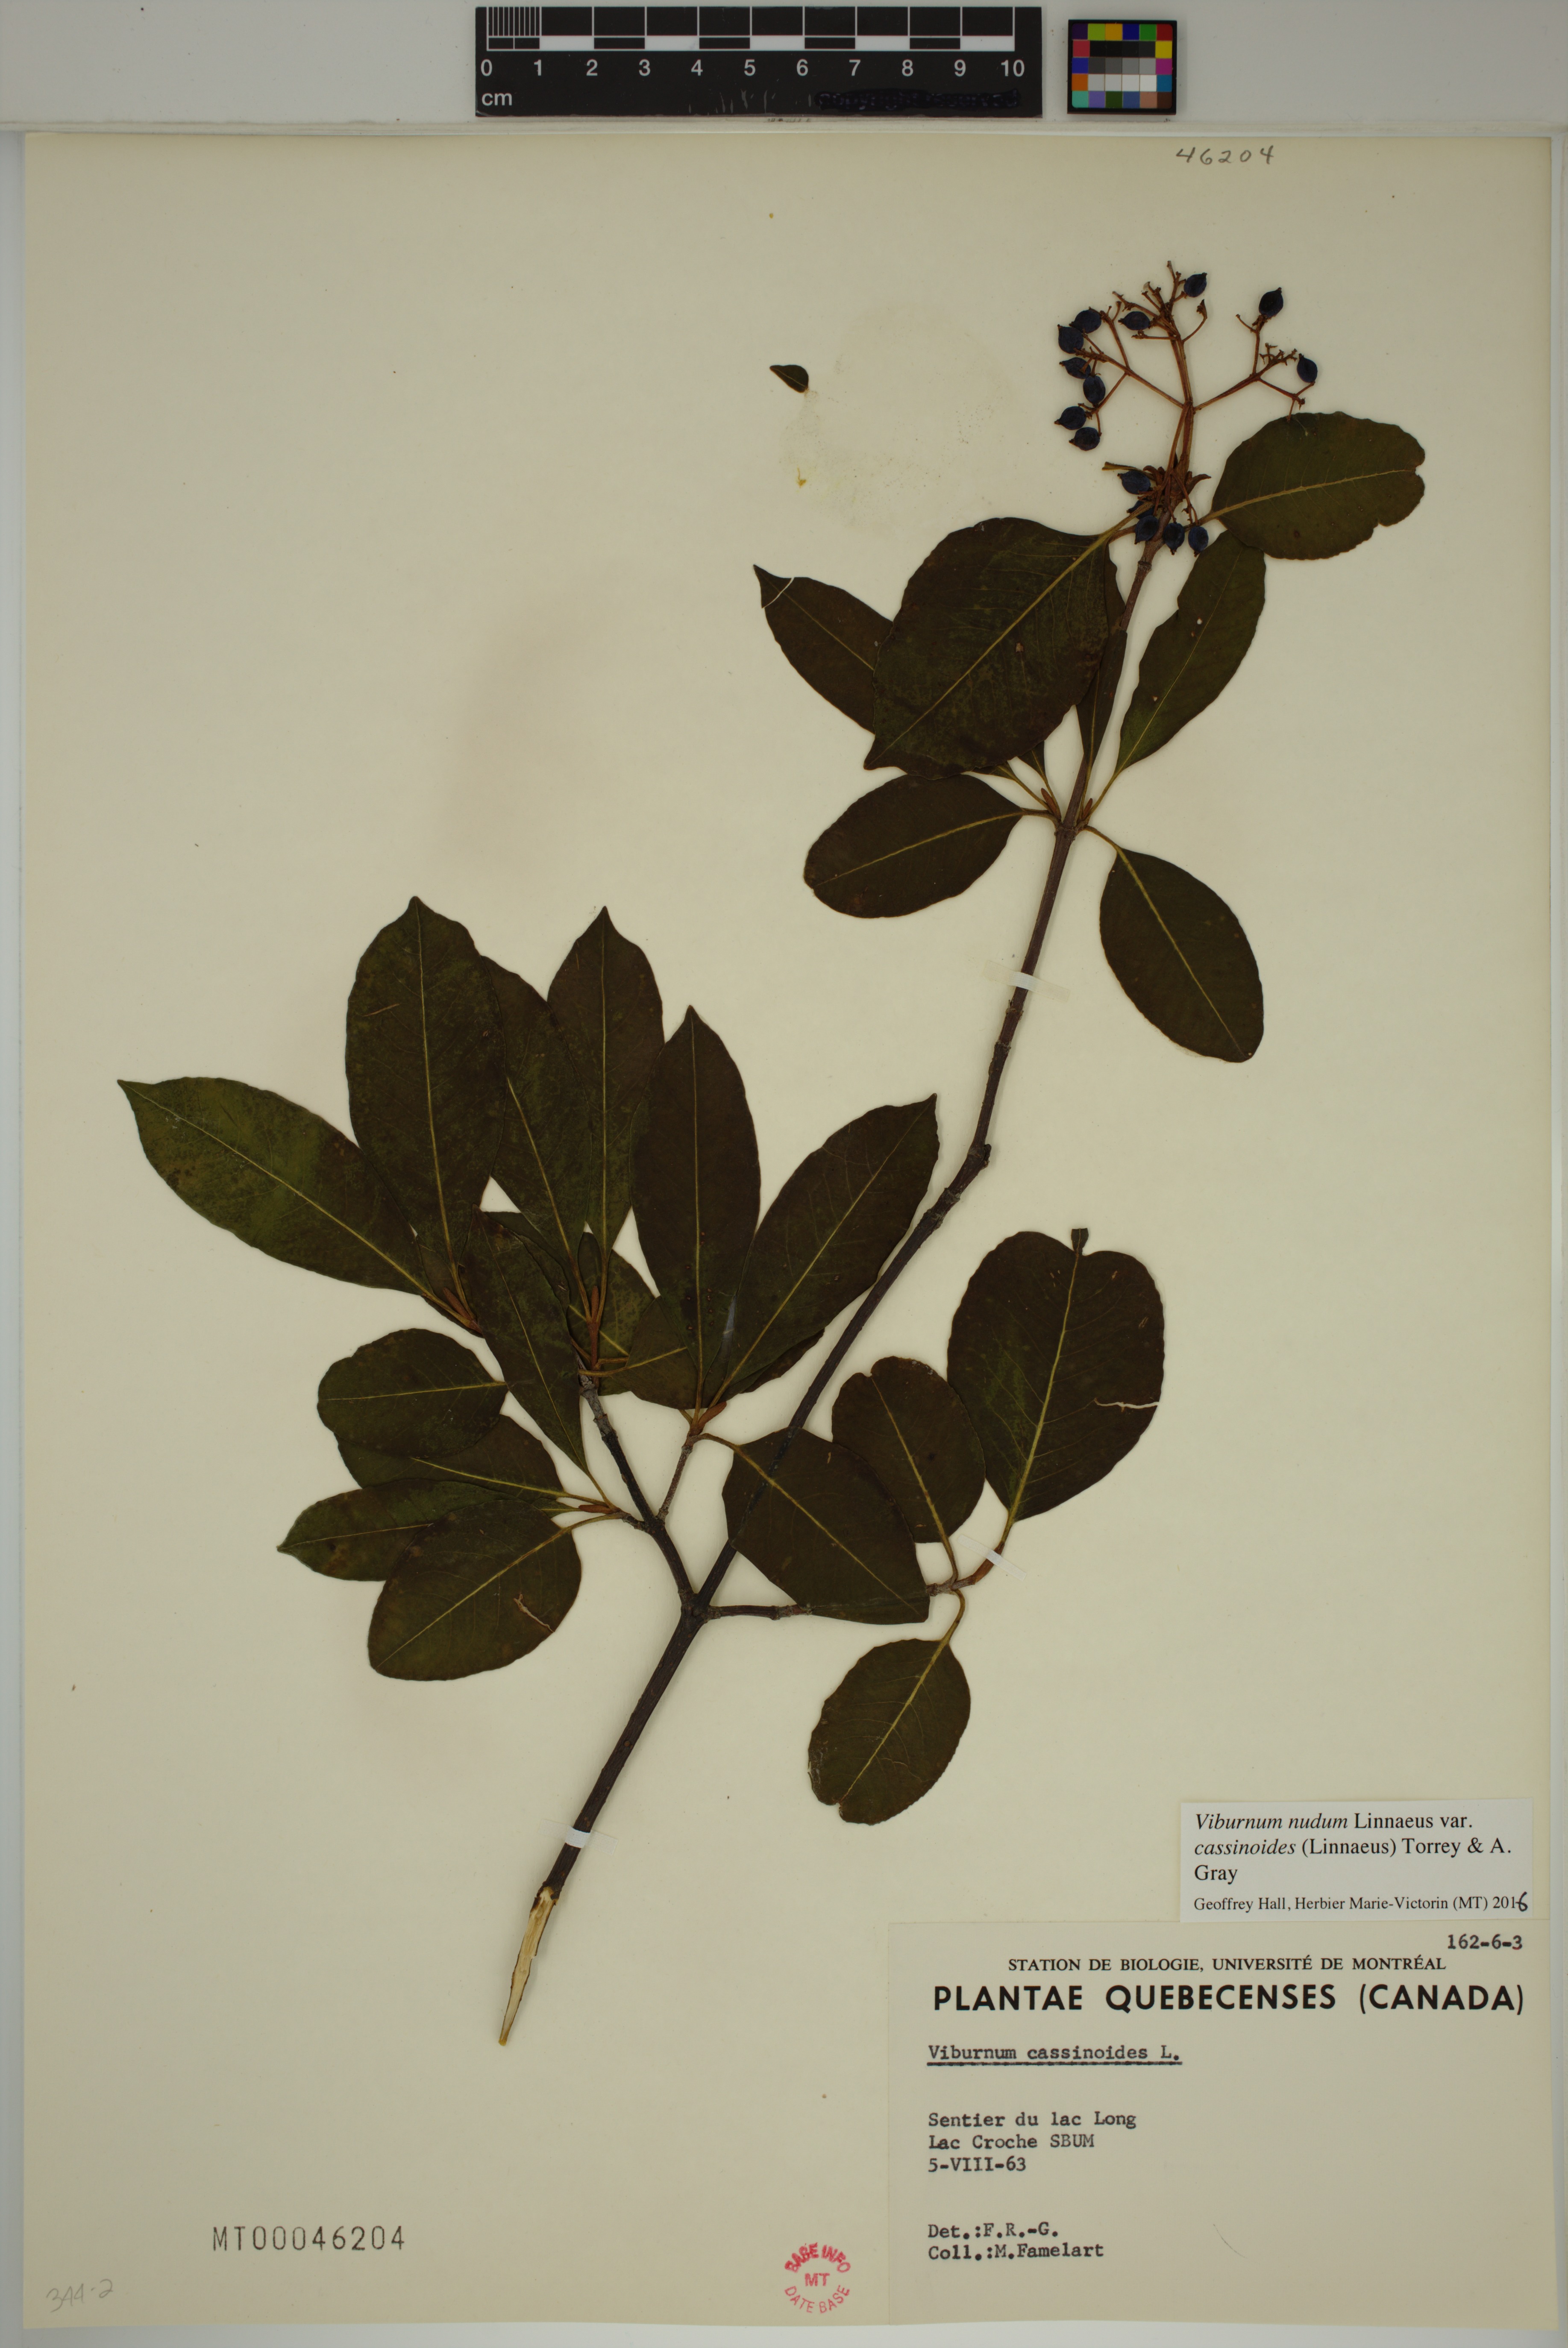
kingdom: Plantae
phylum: Tracheophyta
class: Magnoliopsida
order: Dipsacales
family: Viburnaceae
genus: Viburnum
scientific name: Viburnum cassinoides
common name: Swamp haw
